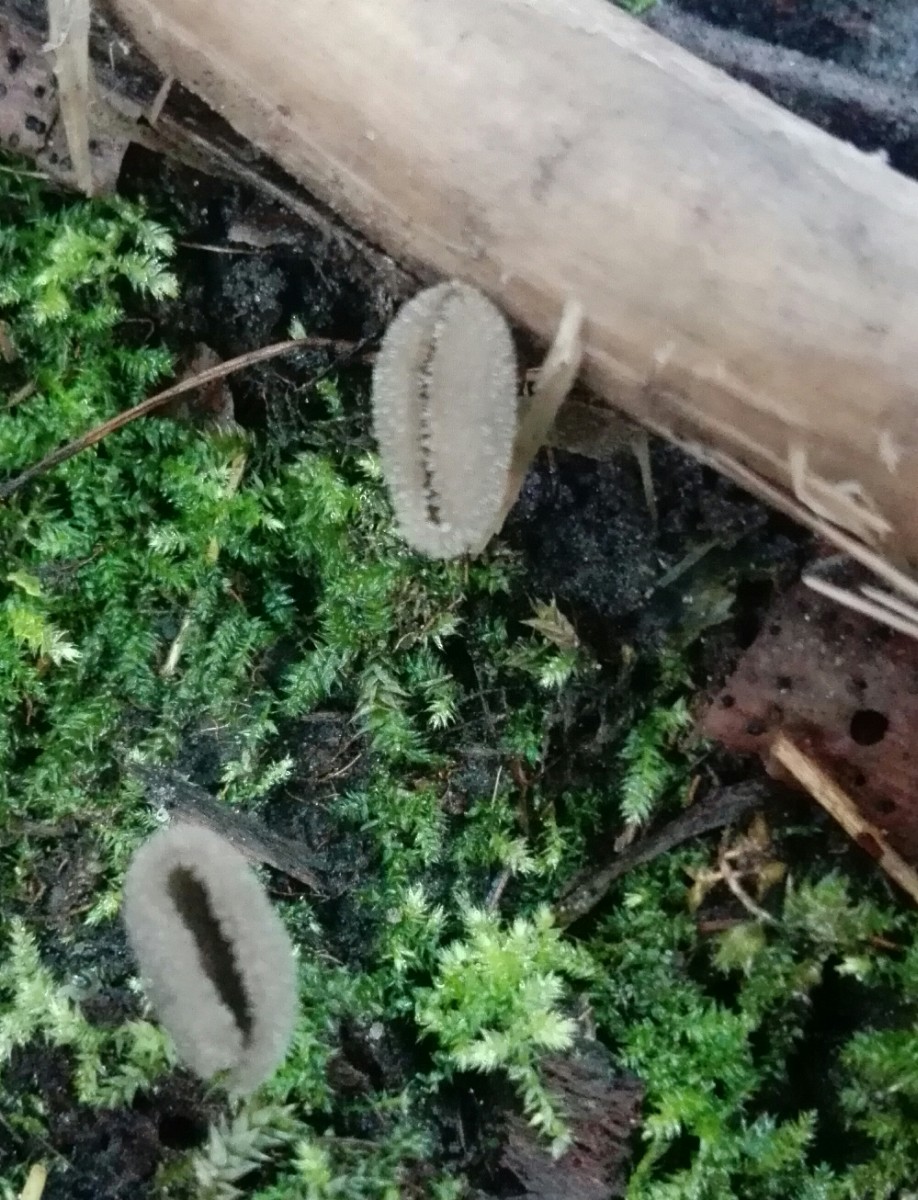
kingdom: Fungi
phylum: Ascomycota
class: Pezizomycetes
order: Pezizales
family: Helvellaceae
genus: Helvella
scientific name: Helvella
